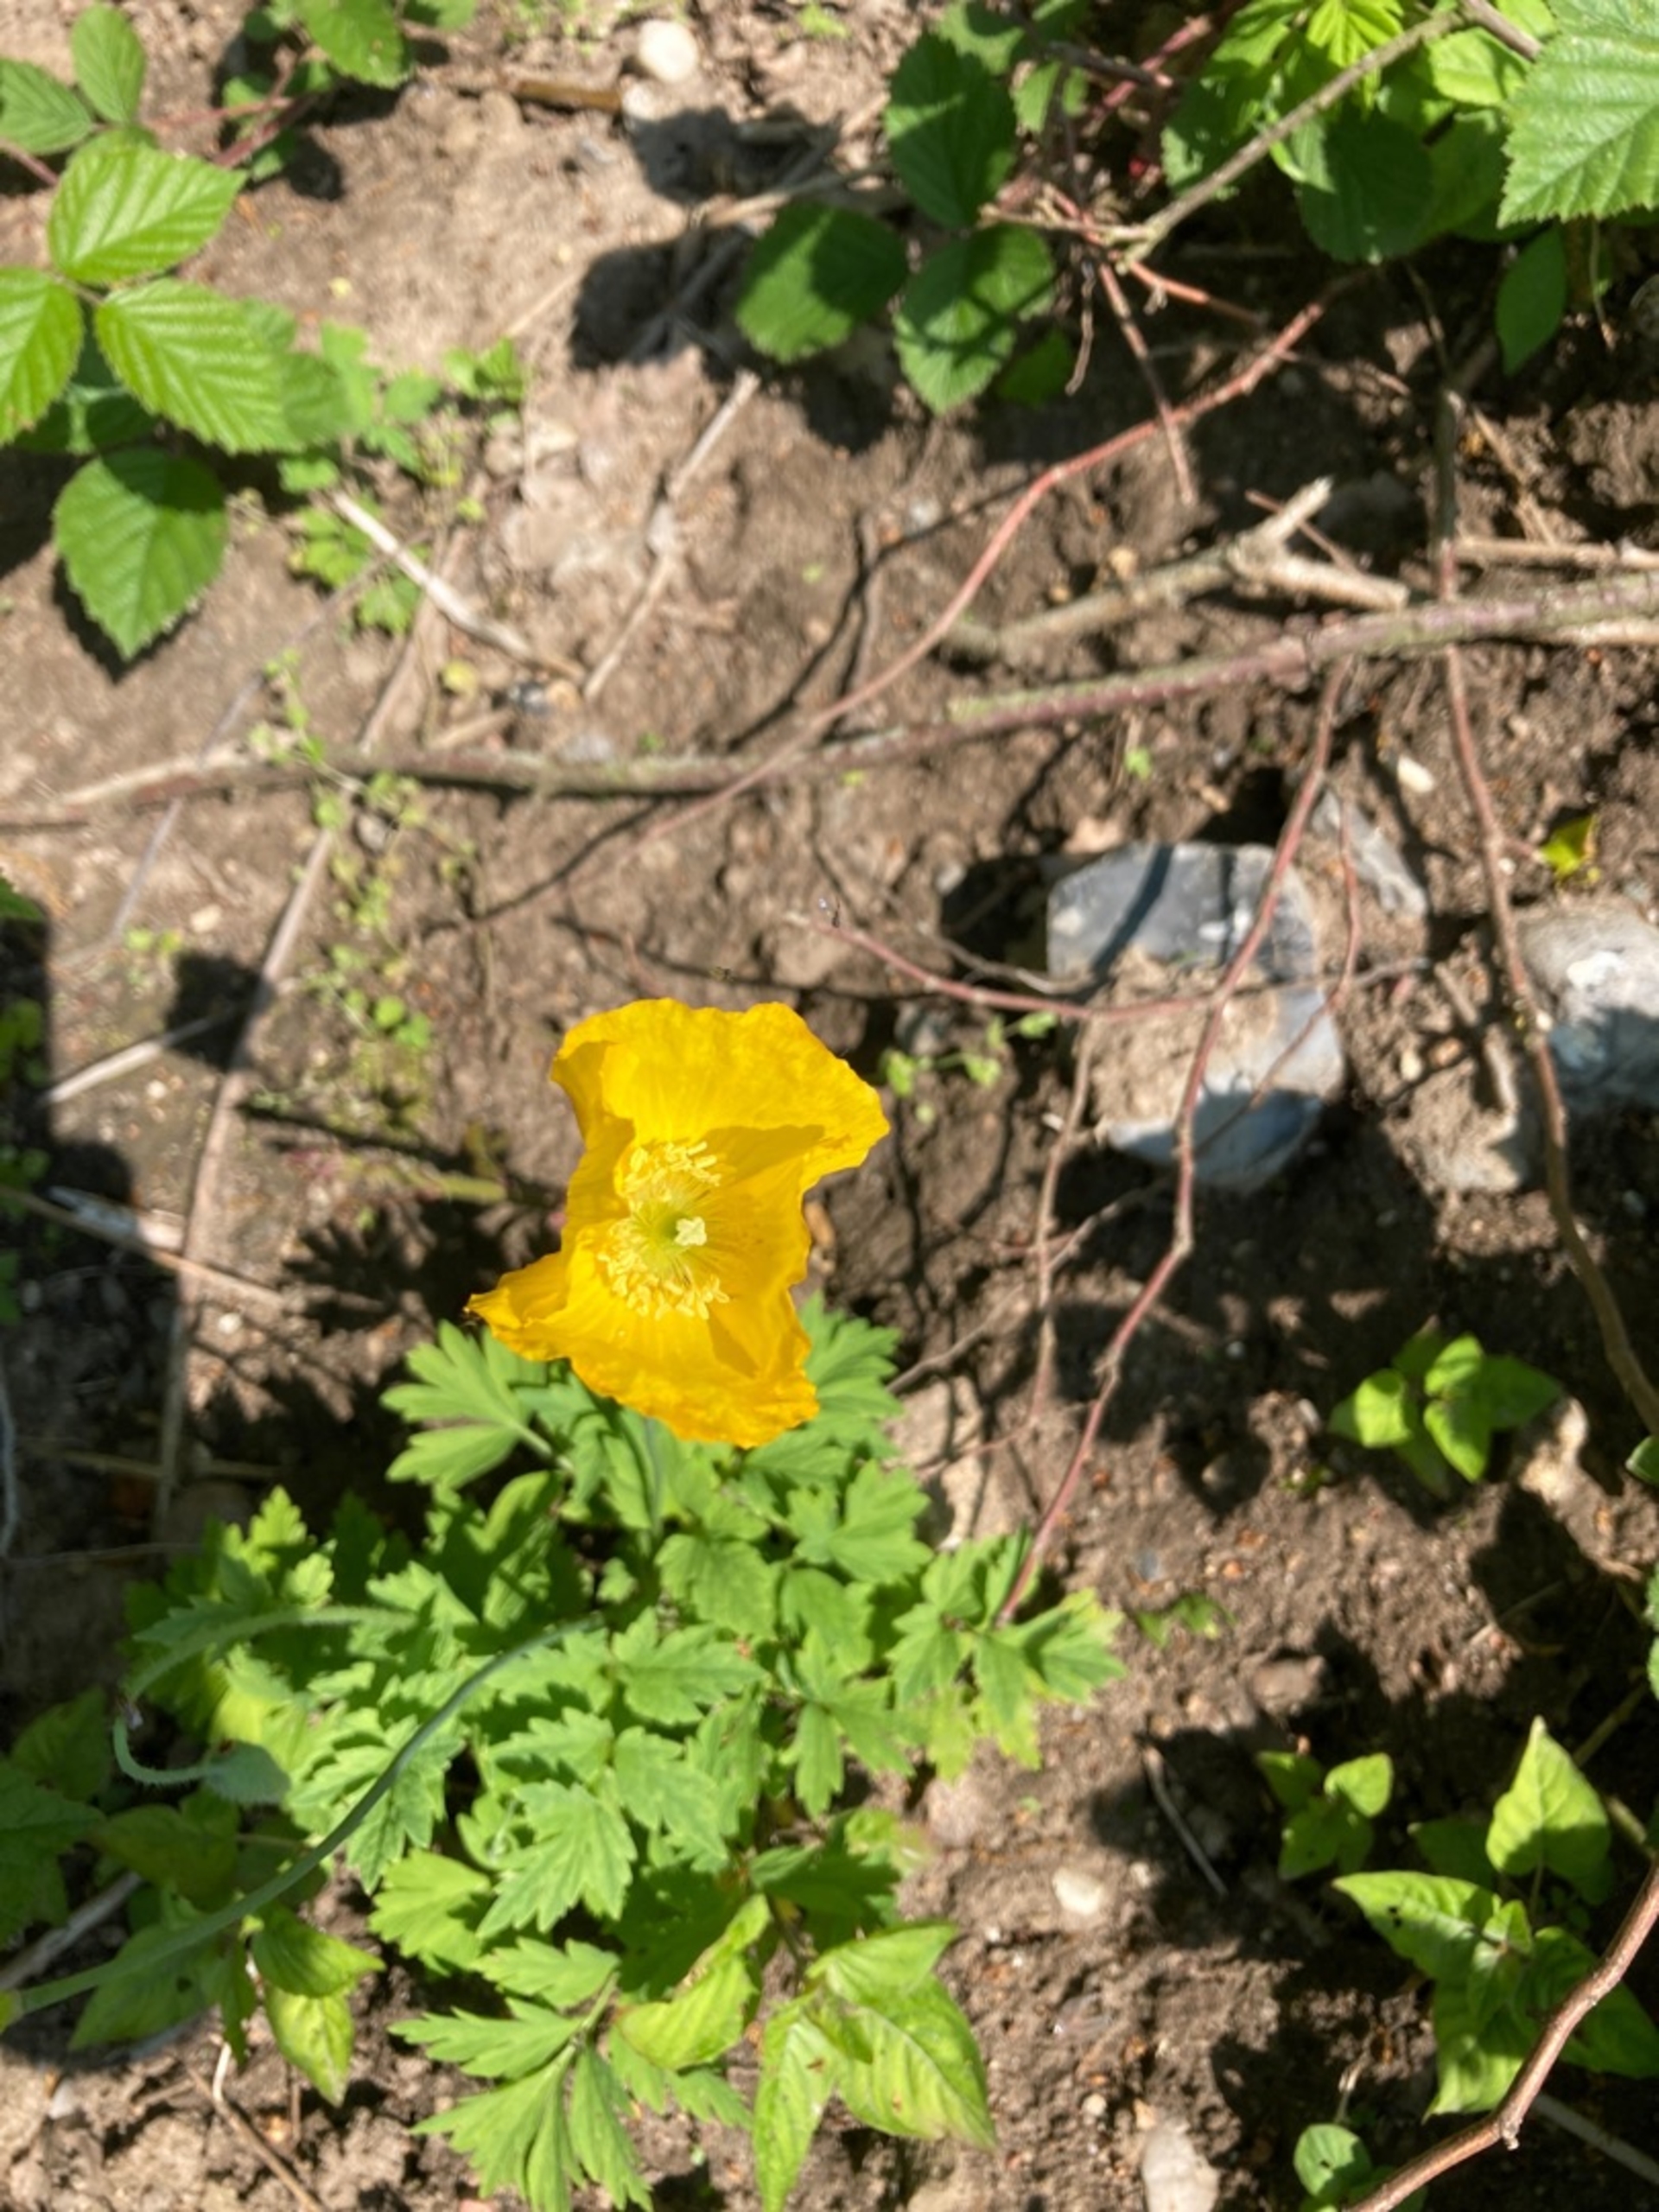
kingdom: Plantae
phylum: Tracheophyta
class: Magnoliopsida
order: Ranunculales
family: Papaveraceae
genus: Papaver
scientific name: Papaver cambricum
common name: Skov-valmue
